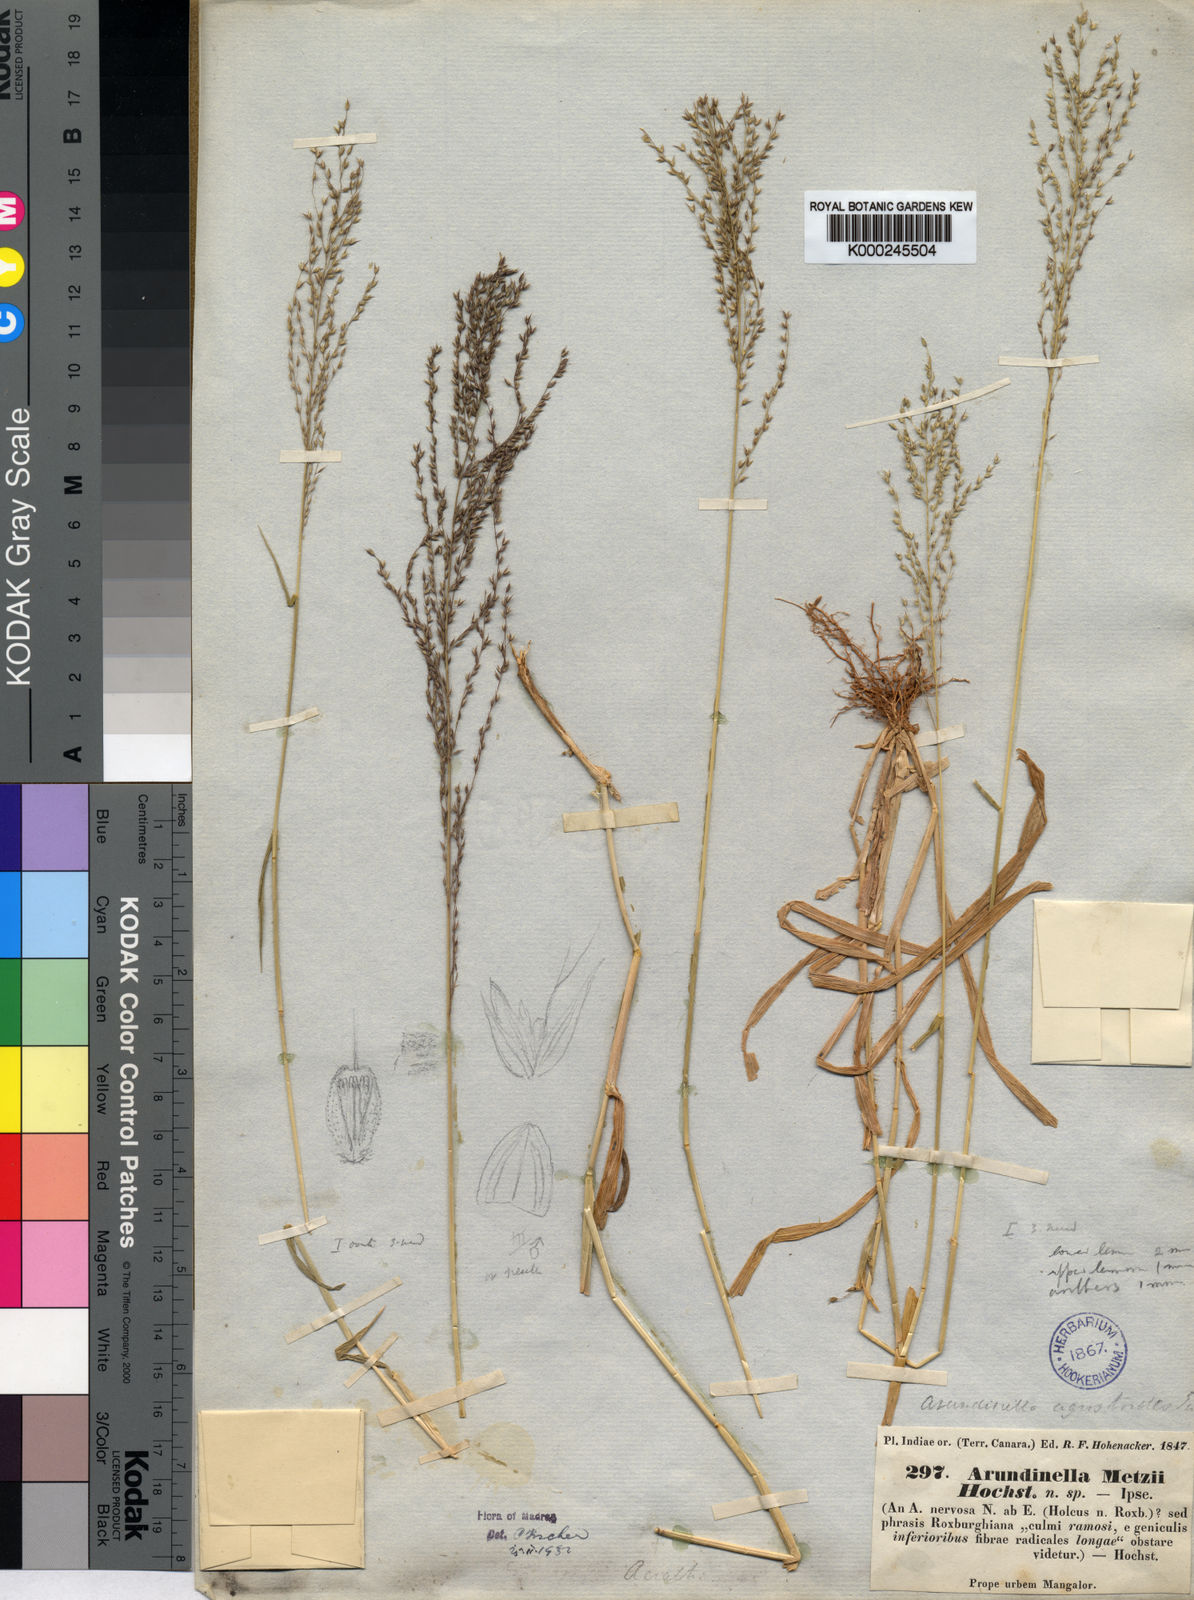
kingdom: Plantae
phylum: Tracheophyta
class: Liliopsida
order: Poales
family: Poaceae
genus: Arundinella
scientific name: Arundinella metzii
